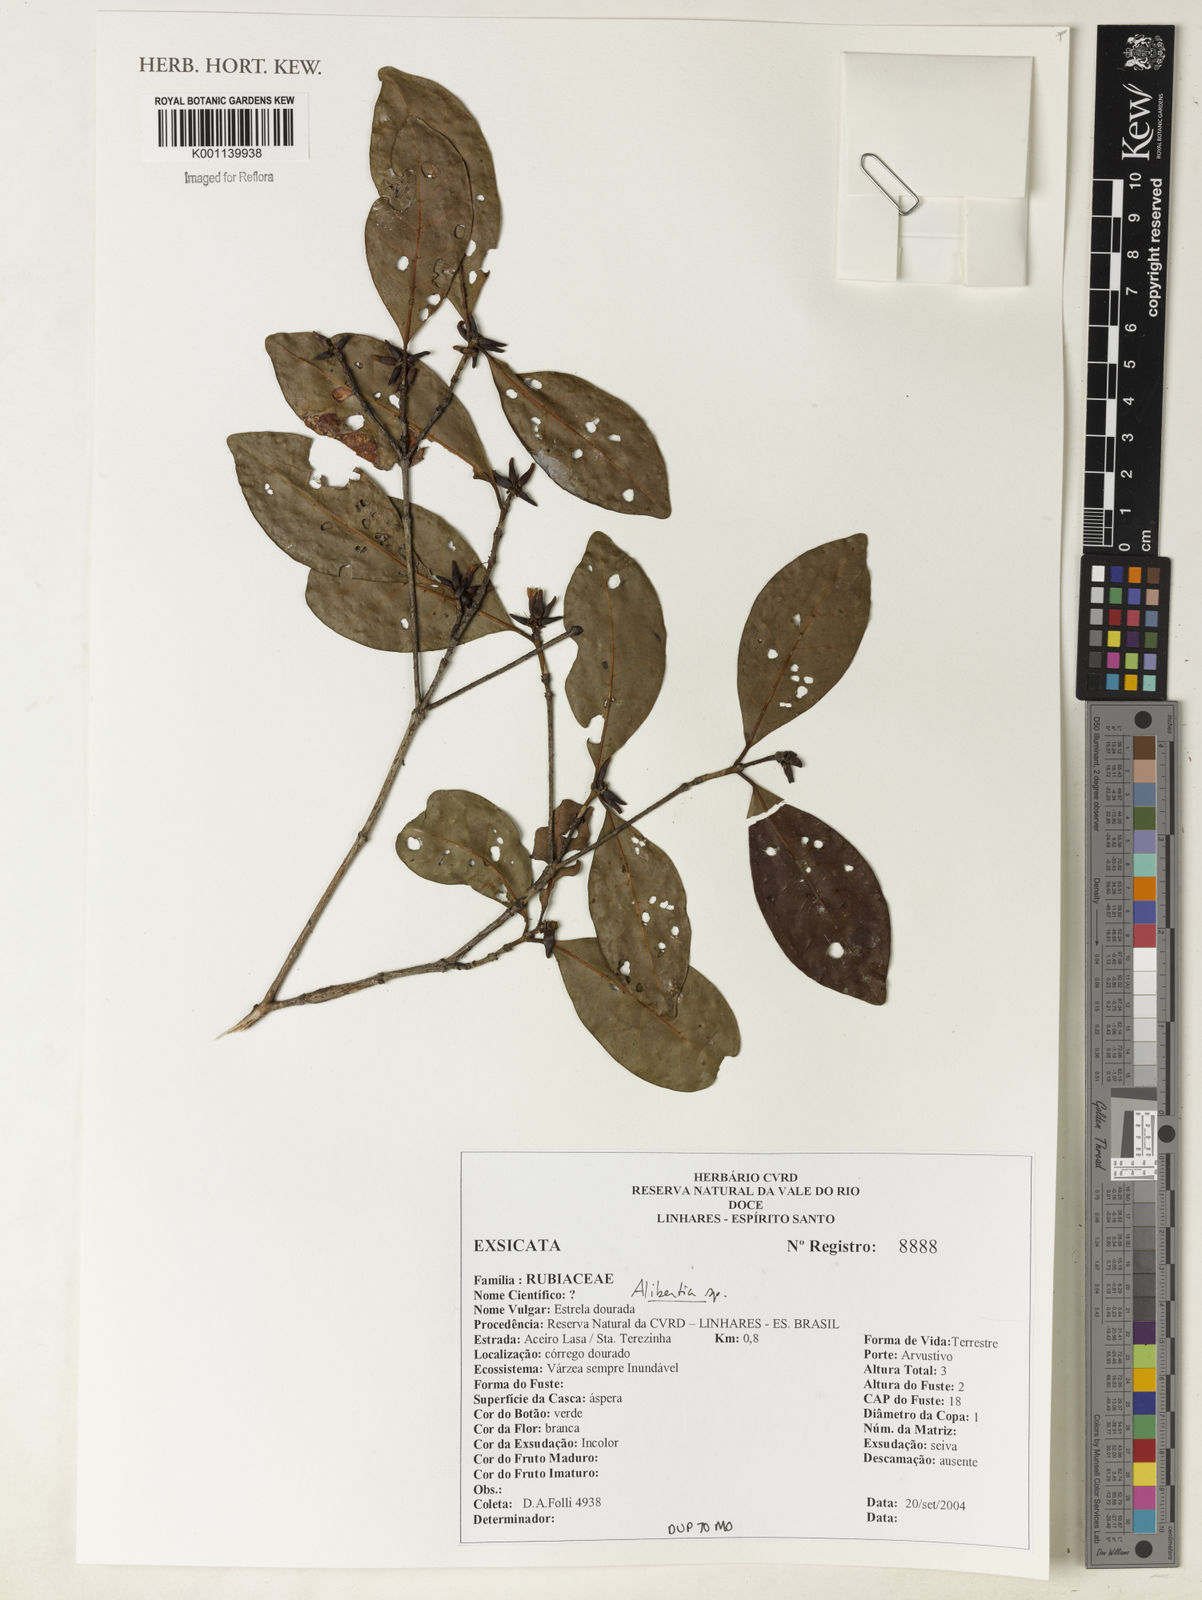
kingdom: Plantae
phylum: Tracheophyta
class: Magnoliopsida
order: Gentianales
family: Rubiaceae
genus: Alibertia
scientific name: Alibertia
